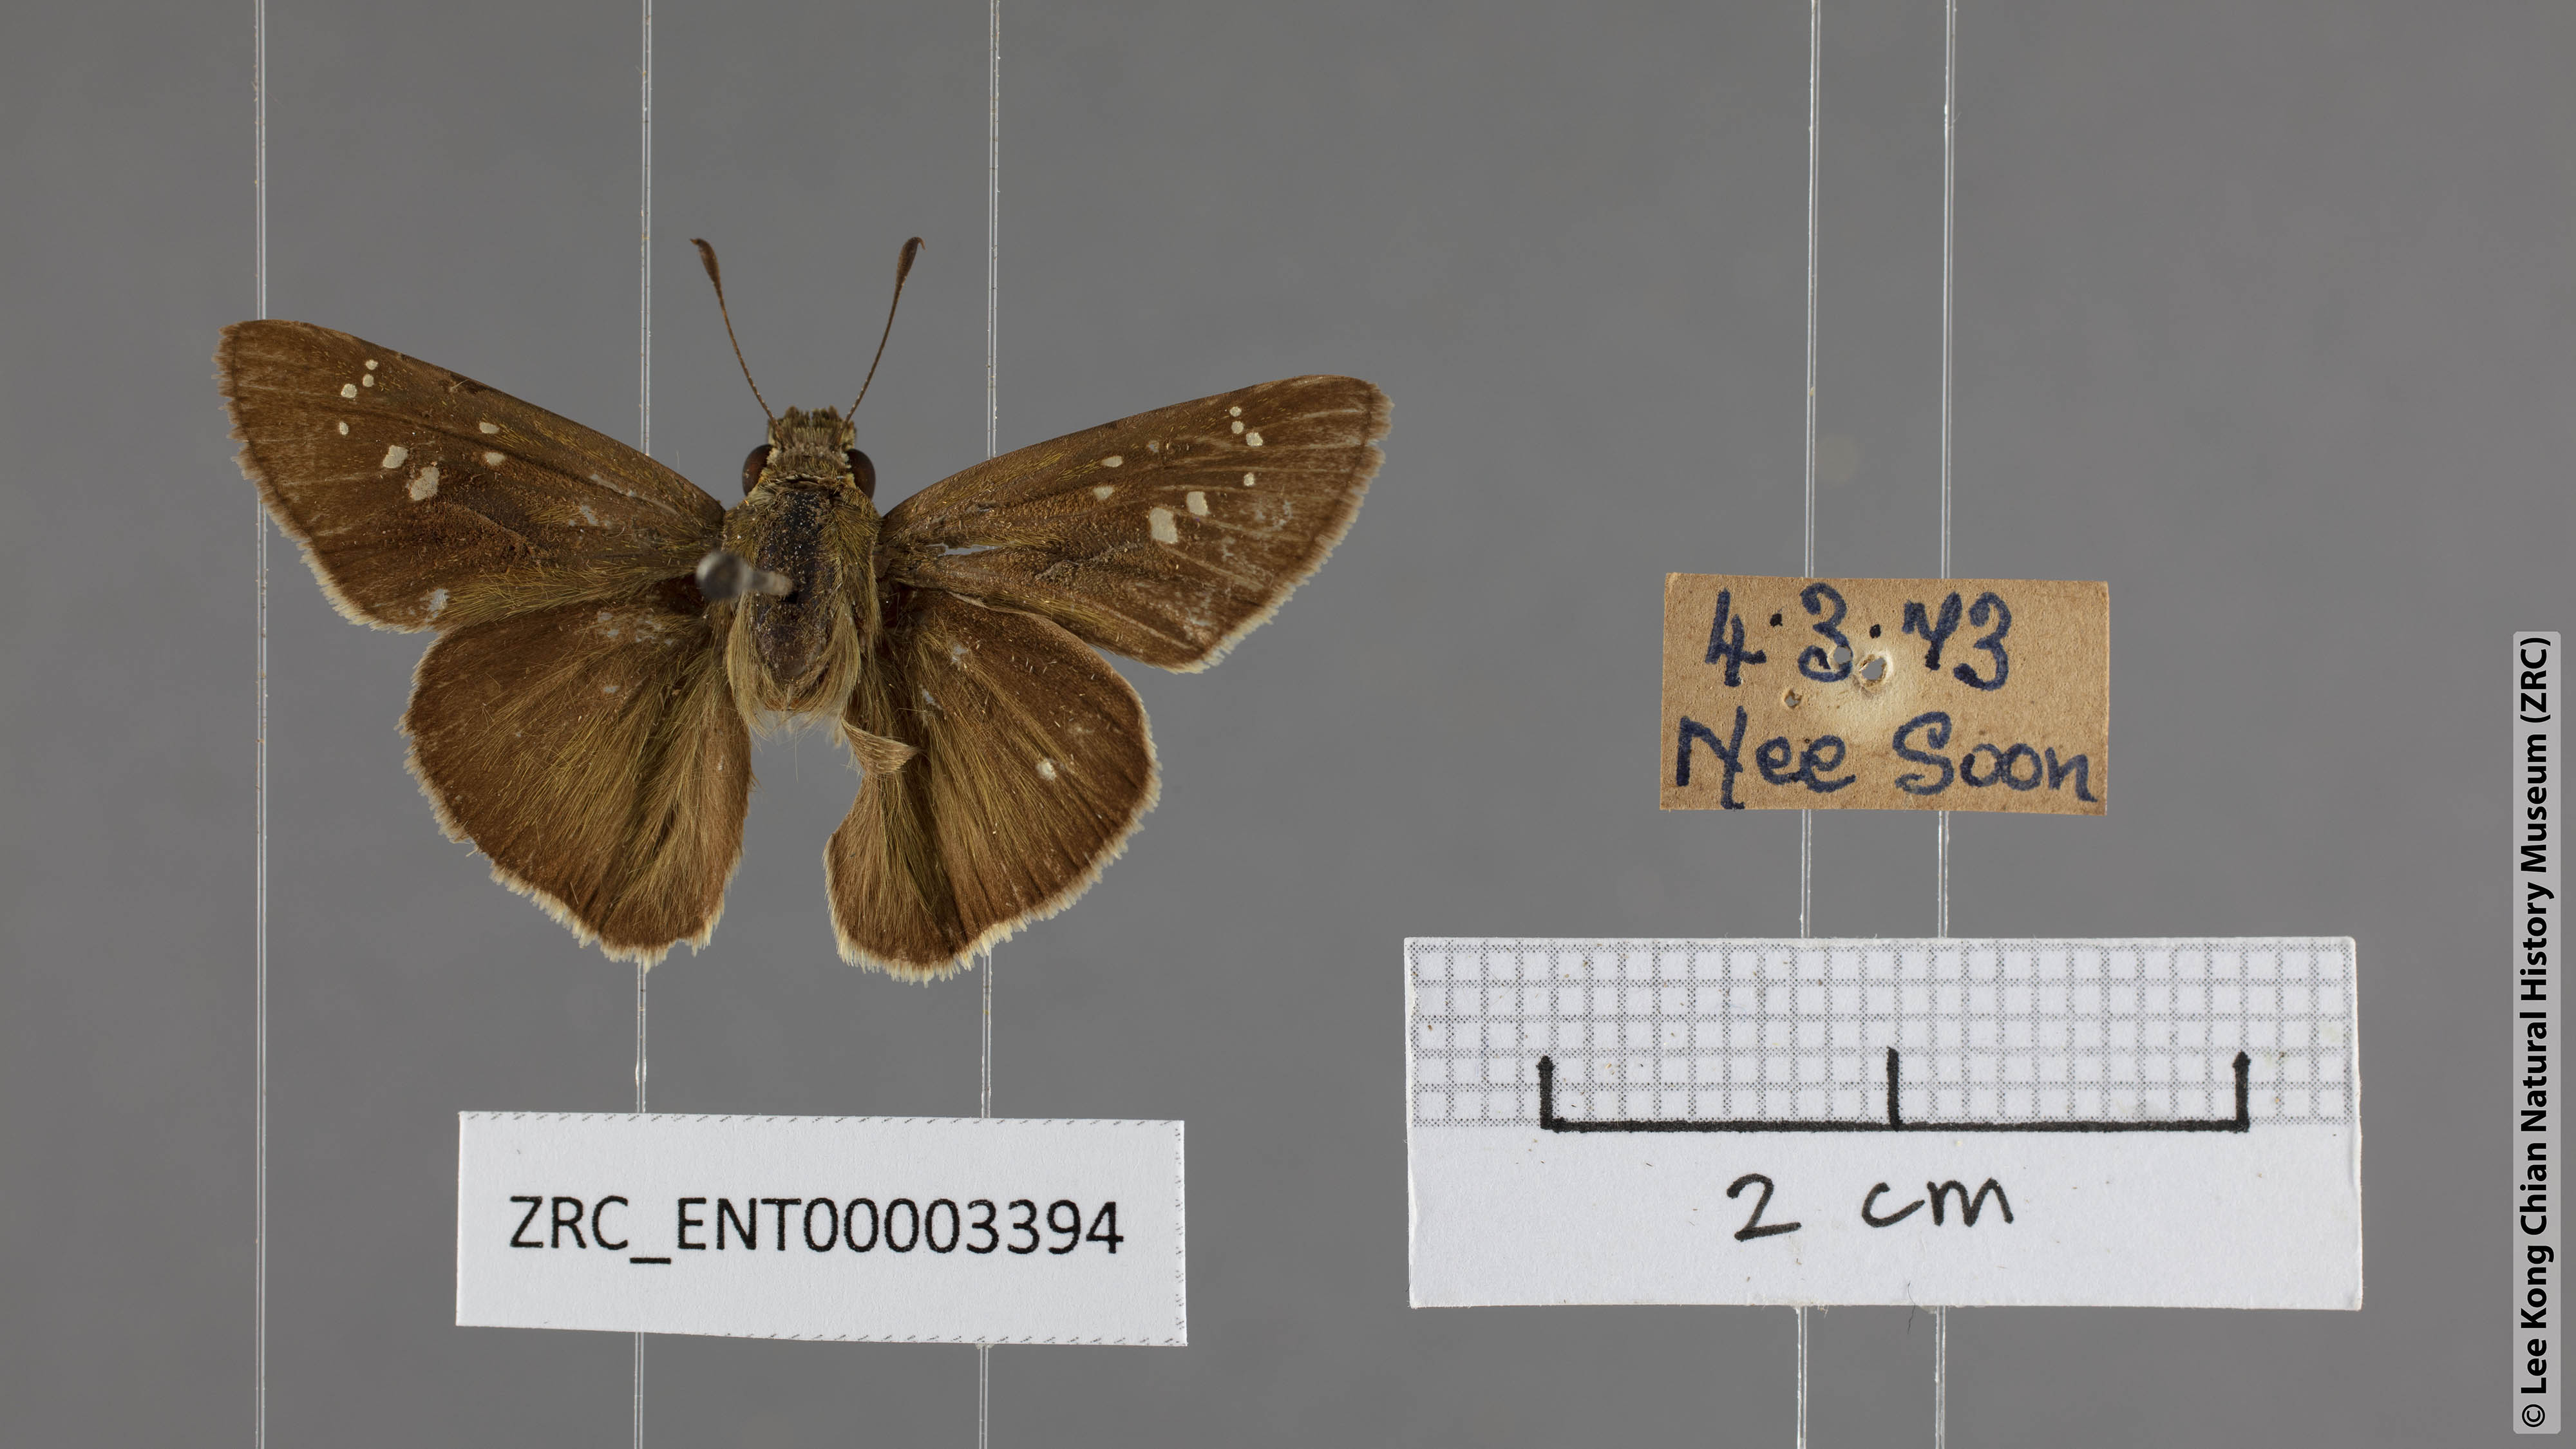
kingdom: Animalia
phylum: Arthropoda
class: Insecta
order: Lepidoptera
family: Hesperiidae
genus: Parnara
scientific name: Parnara ganga
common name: Continental swift
